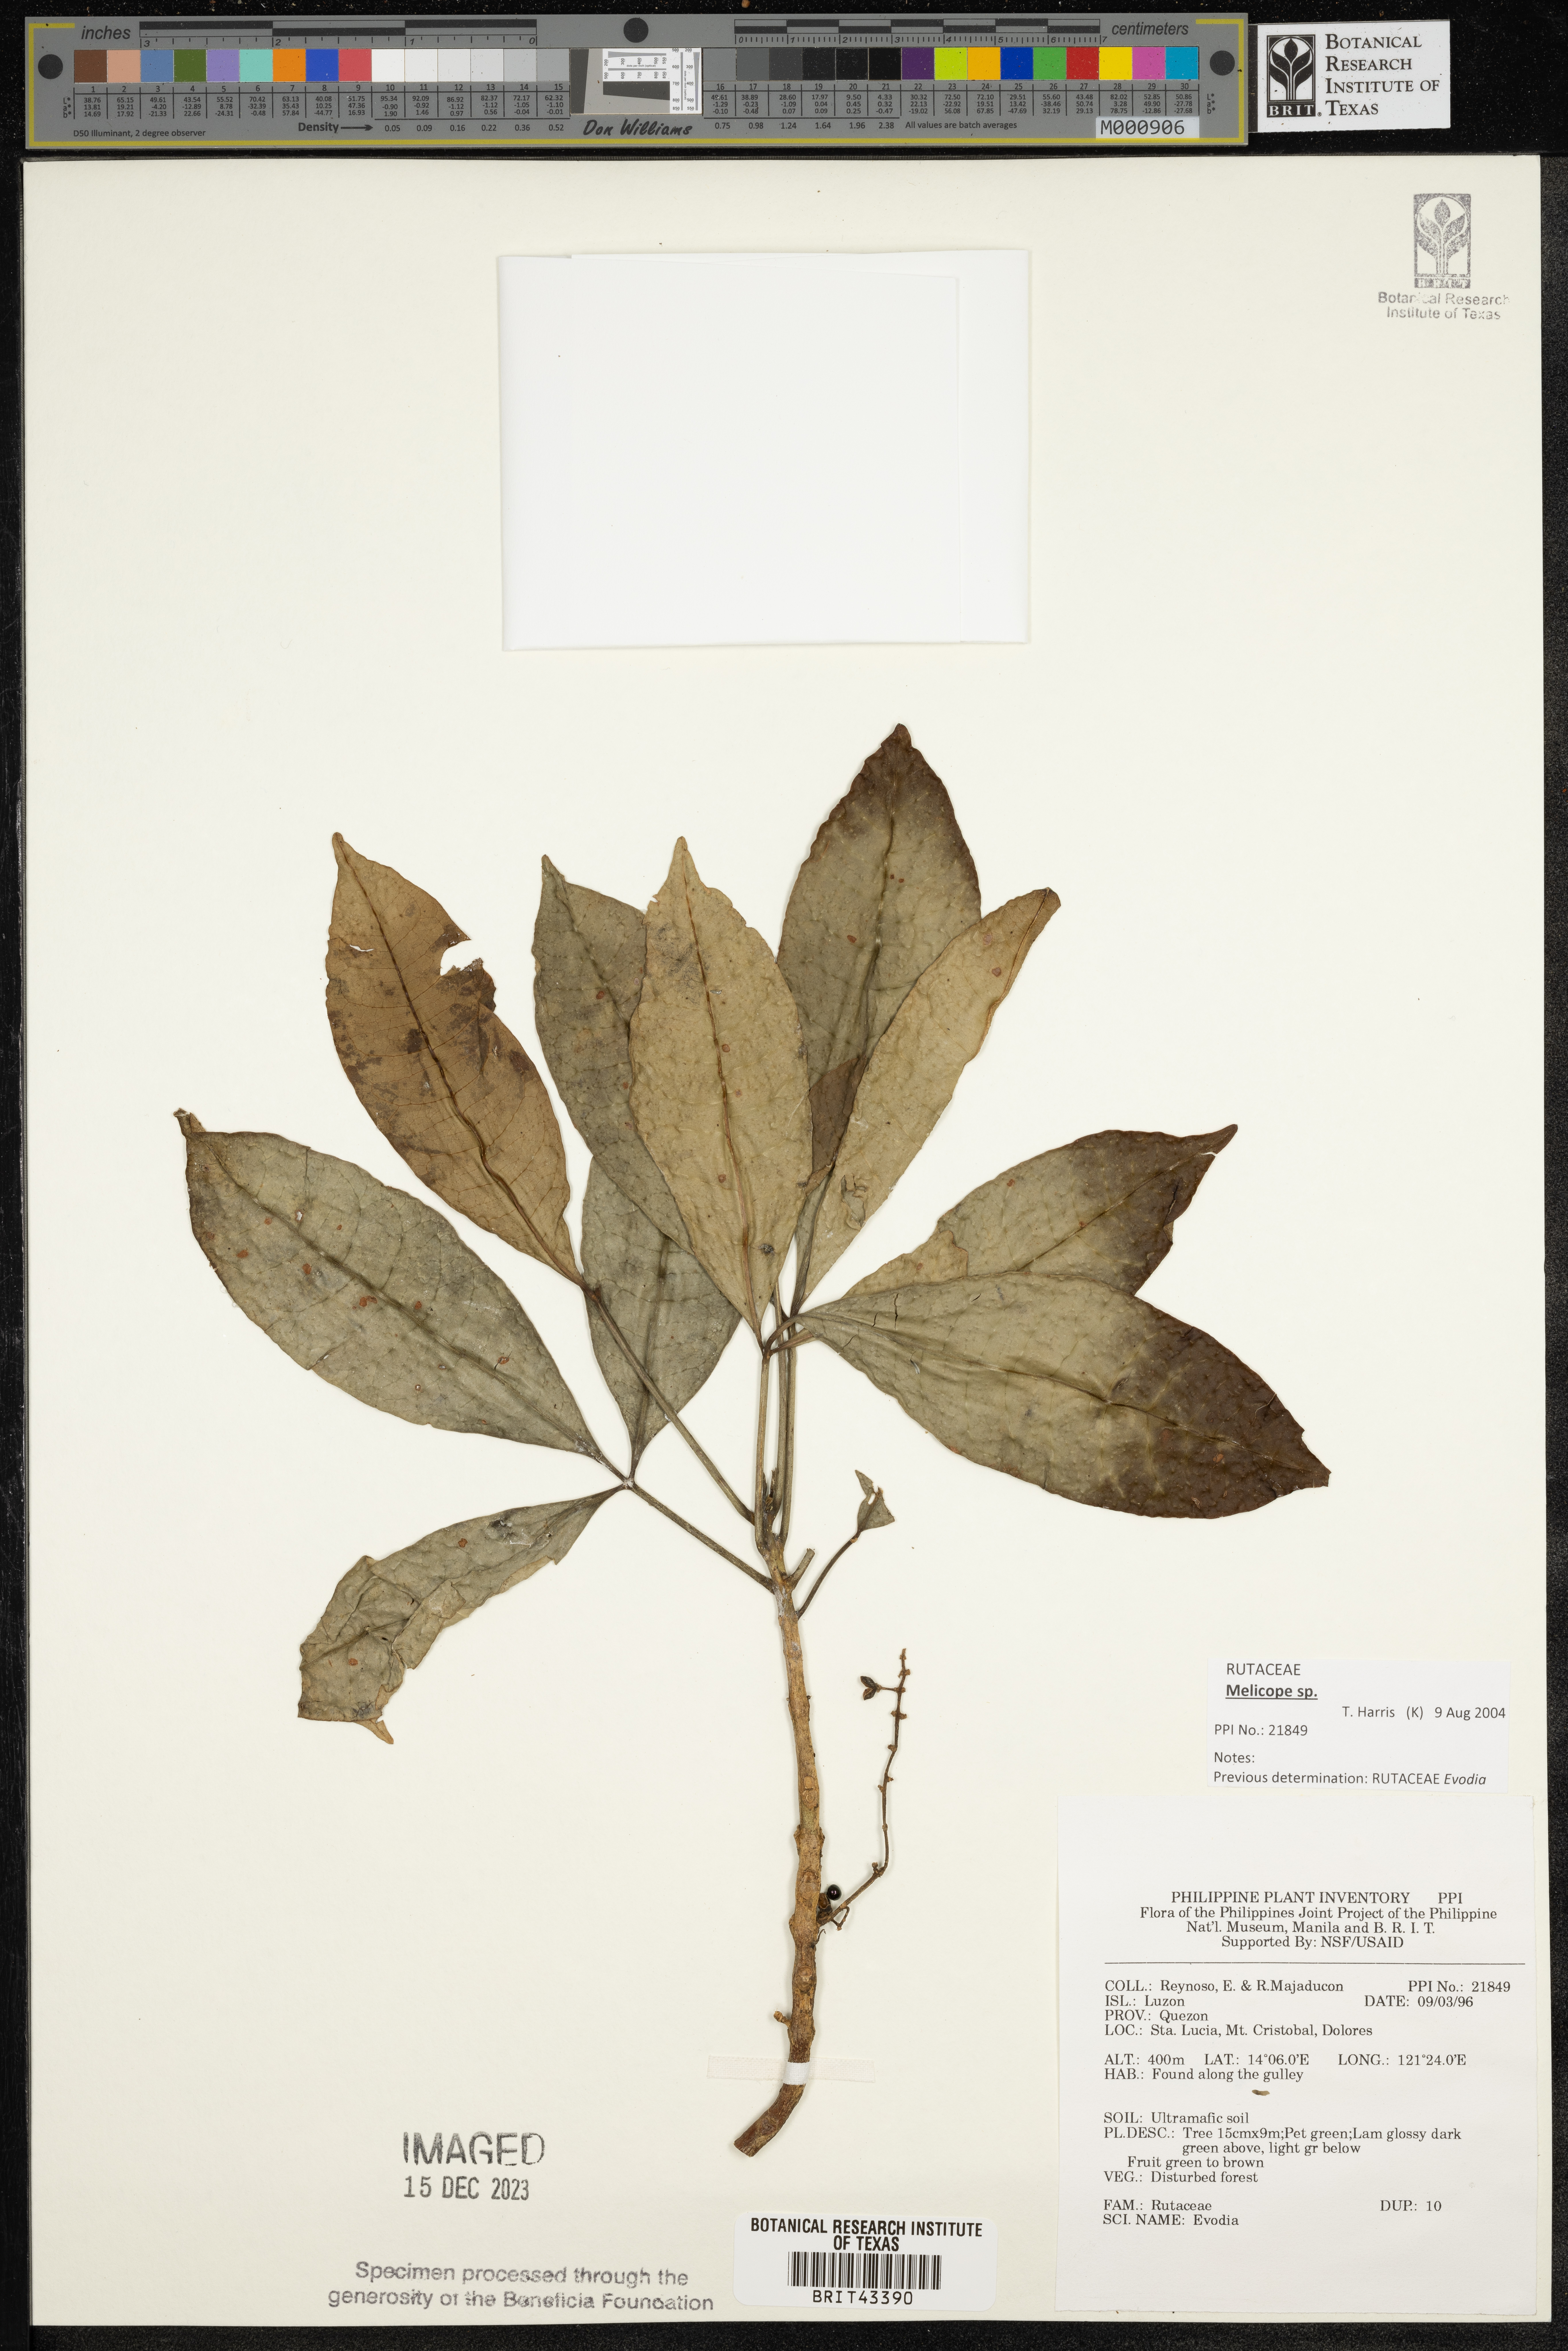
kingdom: Plantae
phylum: Tracheophyta
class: Magnoliopsida
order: Sapindales
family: Rutaceae
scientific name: Rutaceae
